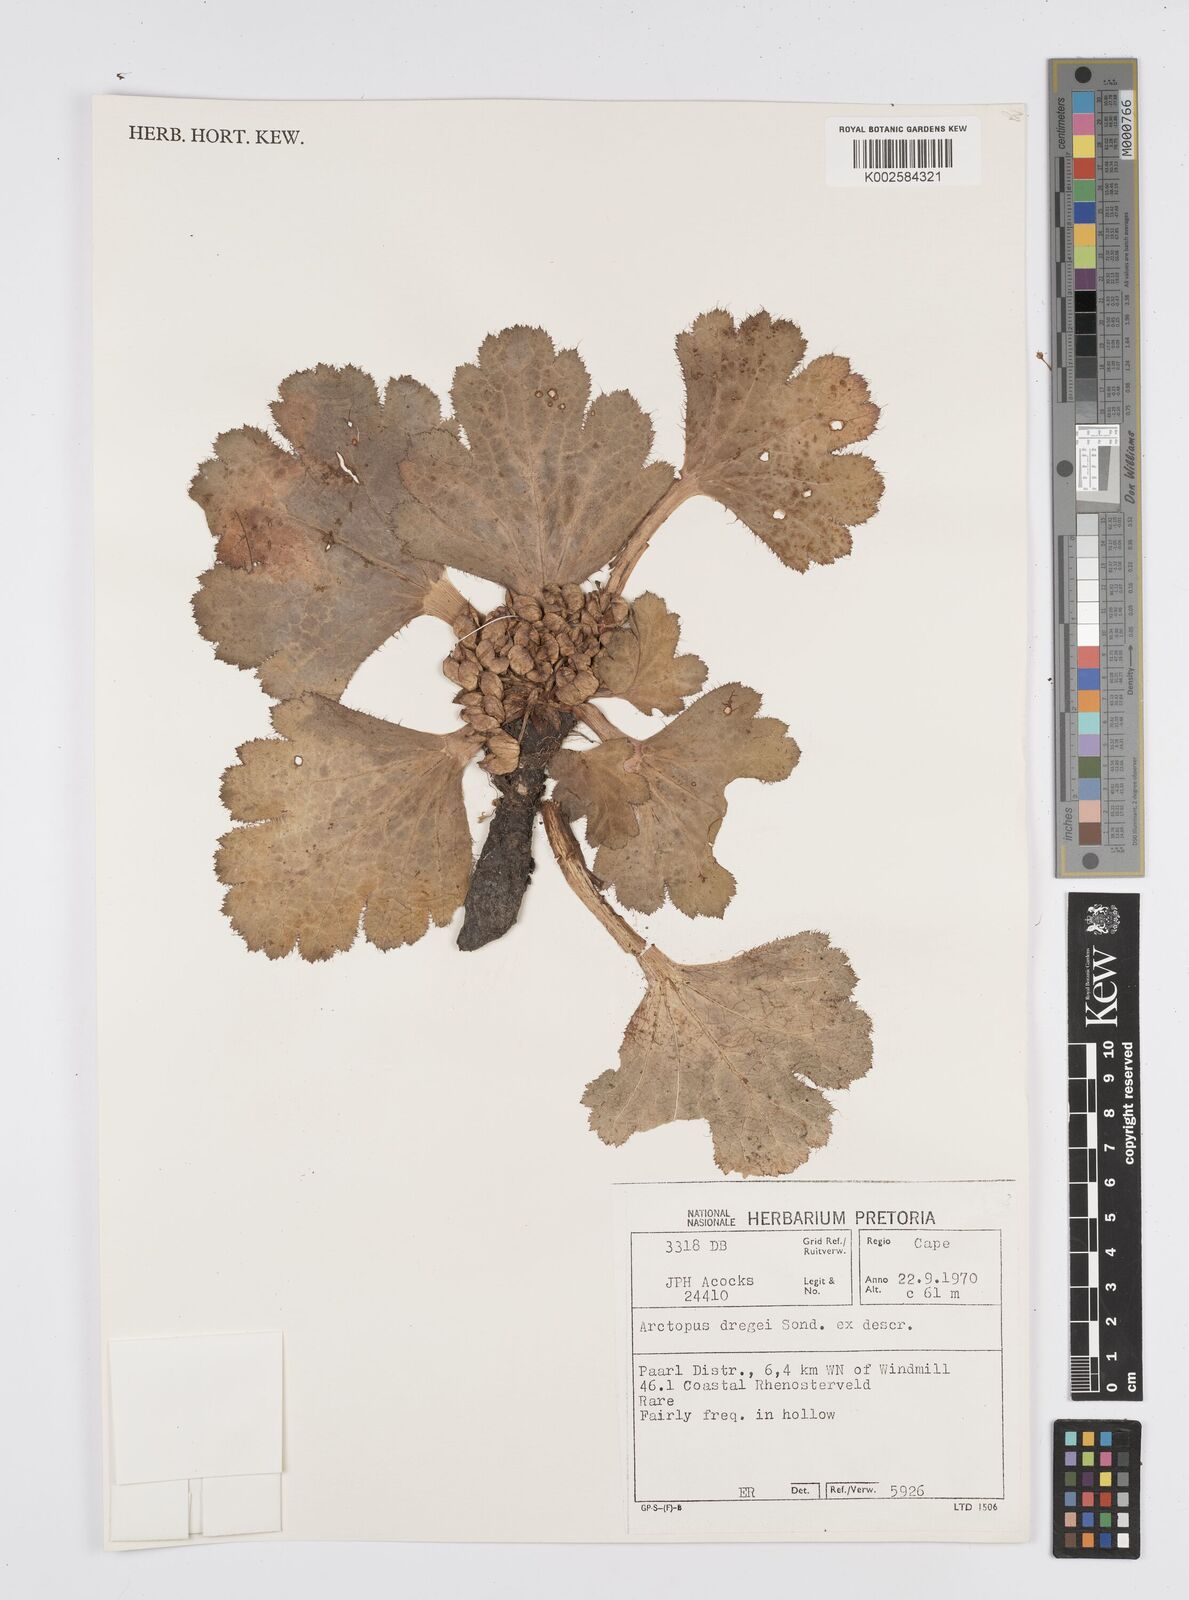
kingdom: Plantae
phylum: Tracheophyta
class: Magnoliopsida
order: Apiales
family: Apiaceae
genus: Arctopus
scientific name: Arctopus dregei
